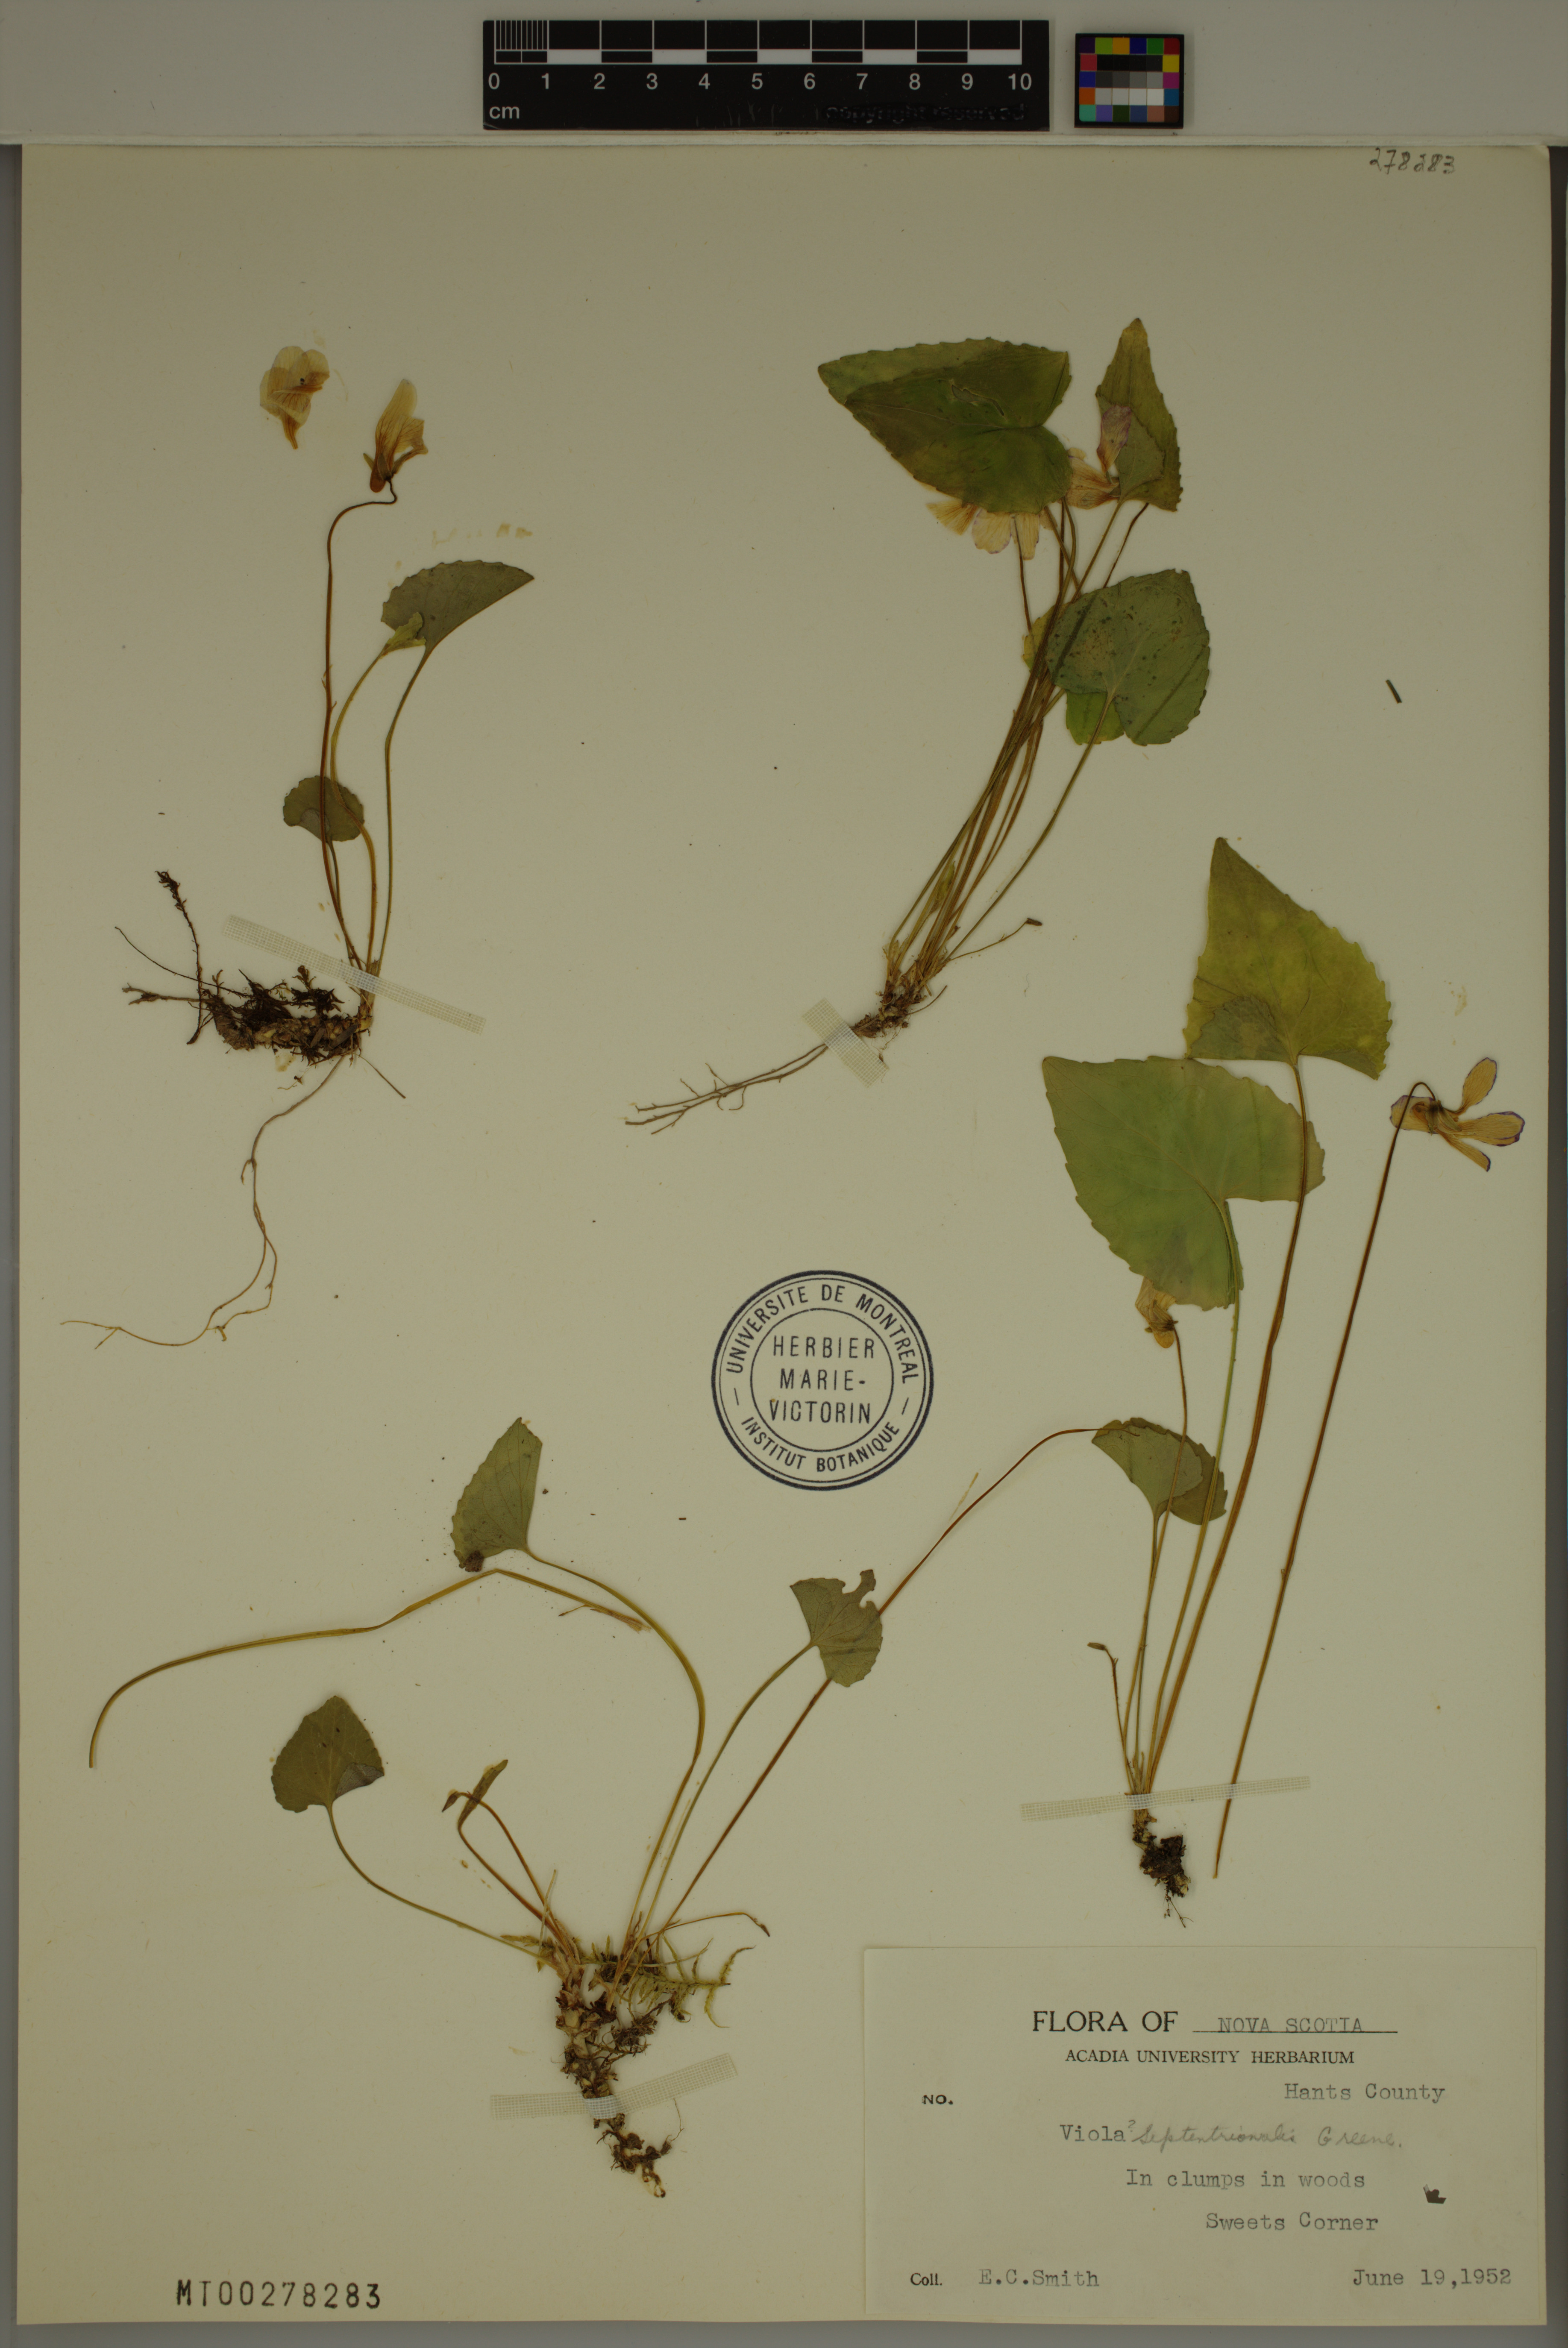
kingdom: Plantae
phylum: Tracheophyta
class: Magnoliopsida
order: Malpighiales
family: Violaceae
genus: Viola
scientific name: Viola septentrionalis
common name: Northern woodland violet
